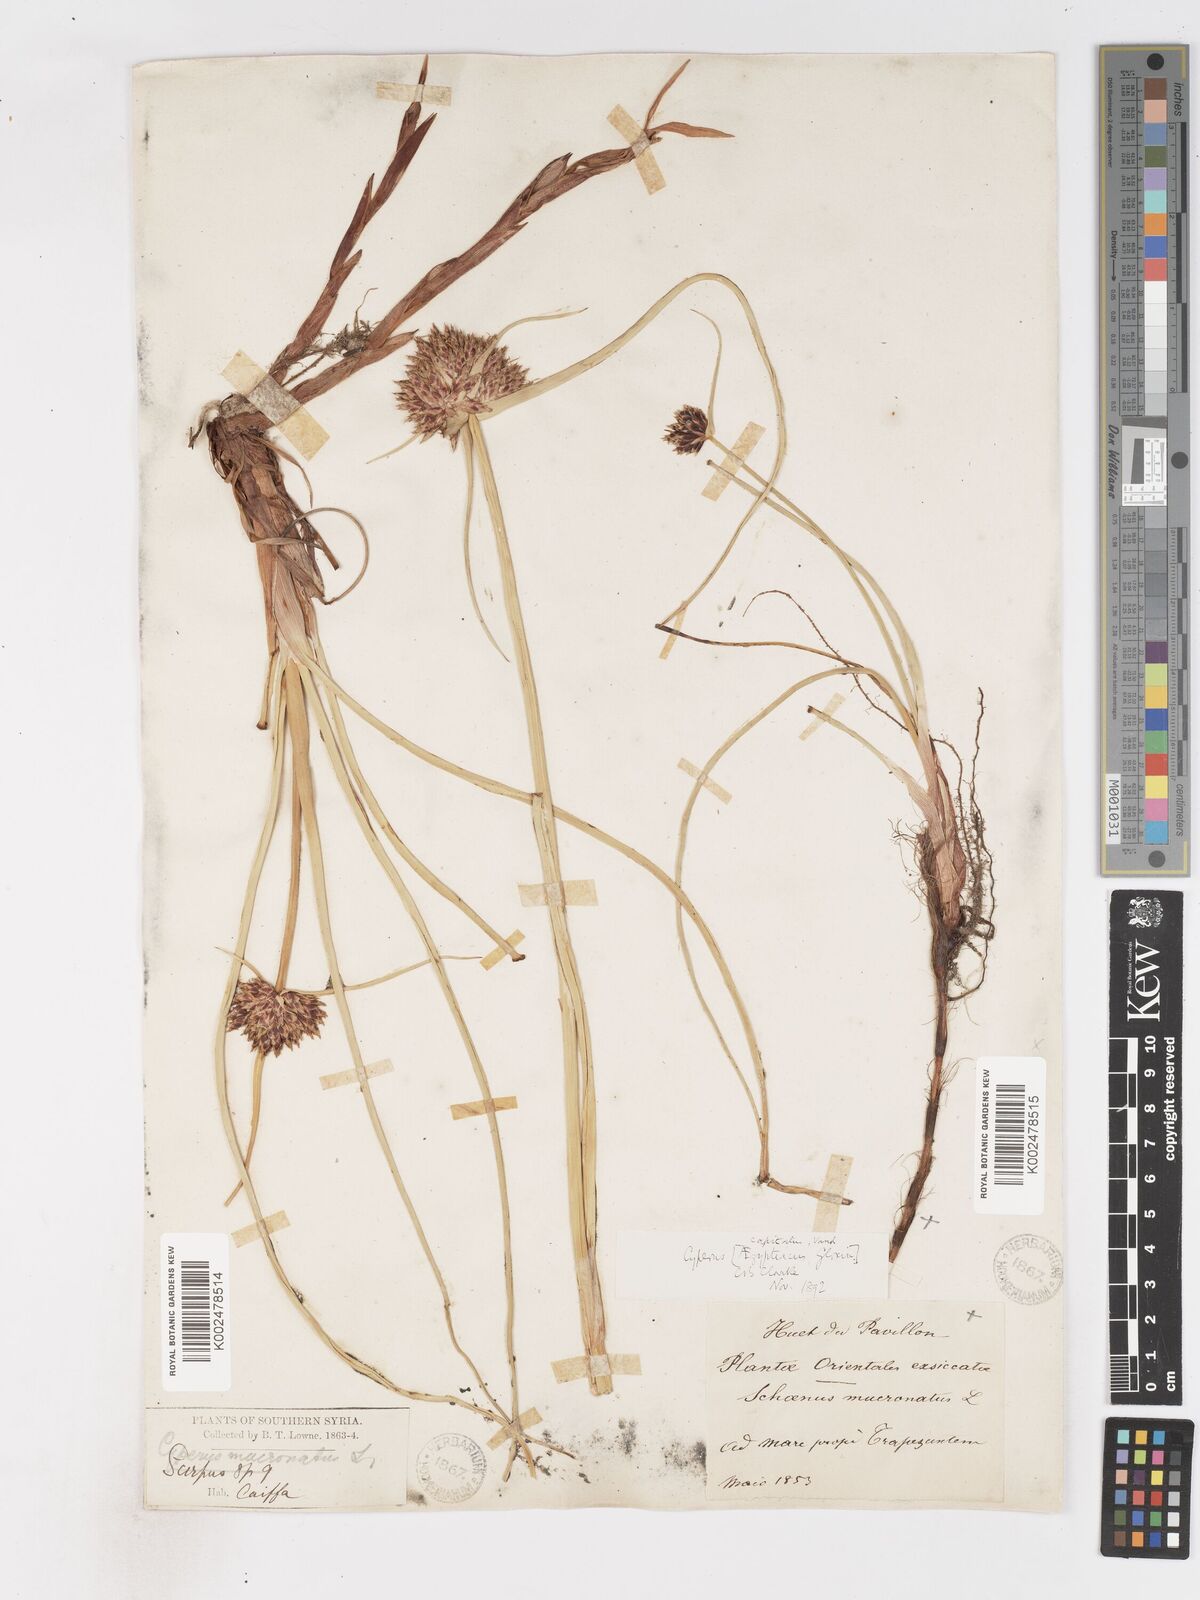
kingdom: Plantae
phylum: Tracheophyta
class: Liliopsida
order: Poales
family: Cyperaceae
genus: Cyperus
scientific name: Cyperus capitatus
